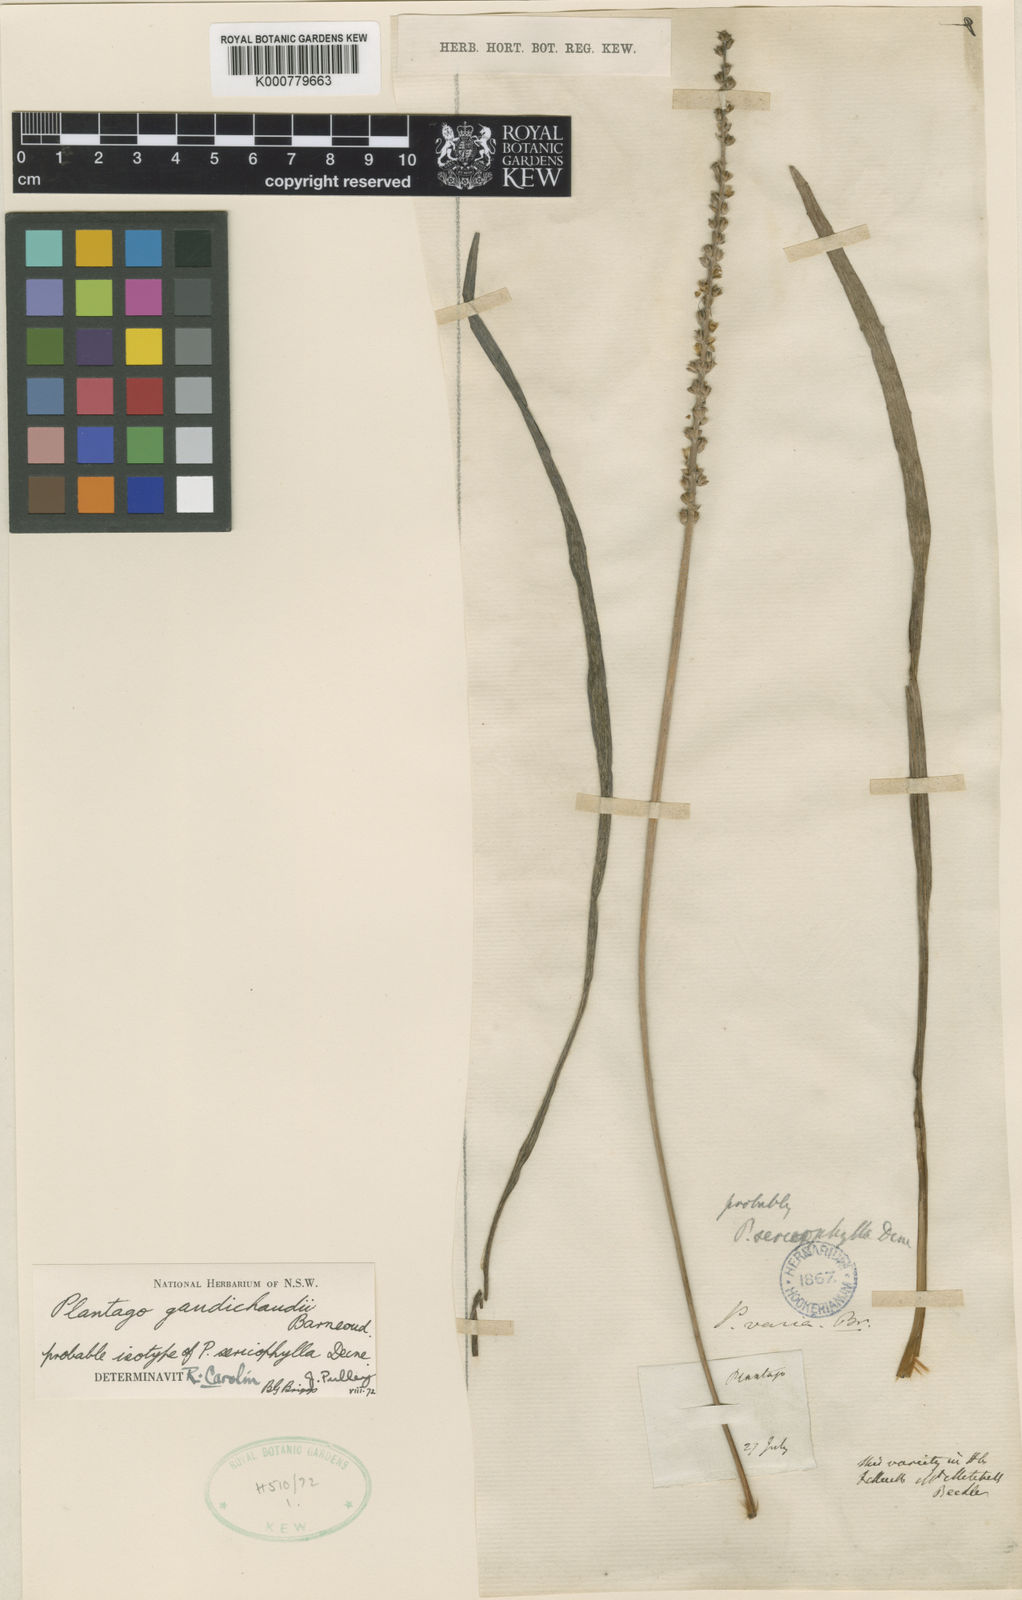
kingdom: Plantae
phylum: Tracheophyta
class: Magnoliopsida
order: Lamiales
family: Plantaginaceae
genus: Plantago
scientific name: Plantago
